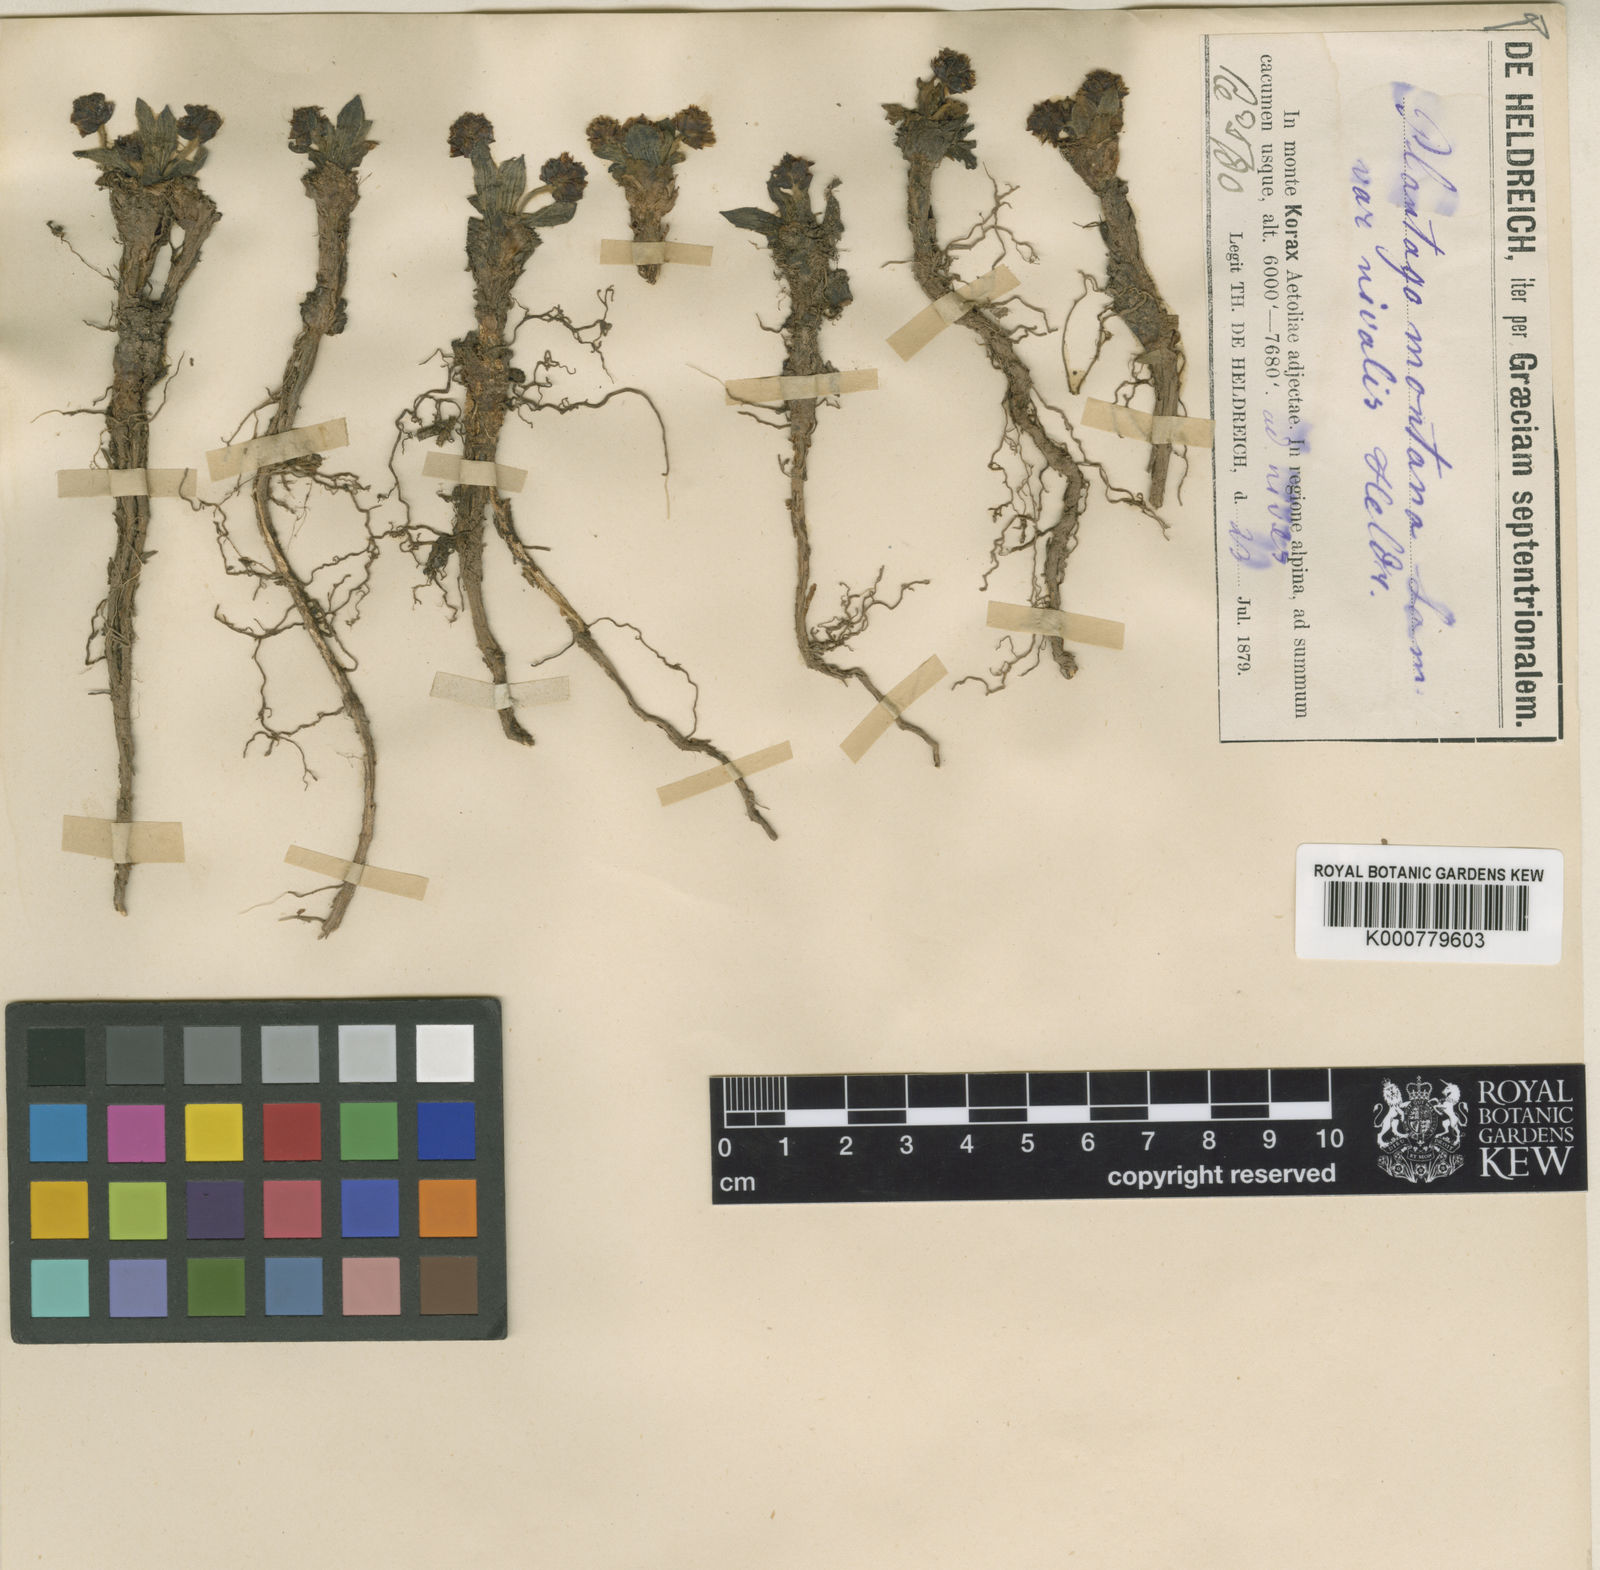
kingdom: Plantae
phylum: Tracheophyta
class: Magnoliopsida
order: Lamiales
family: Plantaginaceae
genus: Plantago
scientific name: Plantago atrata
